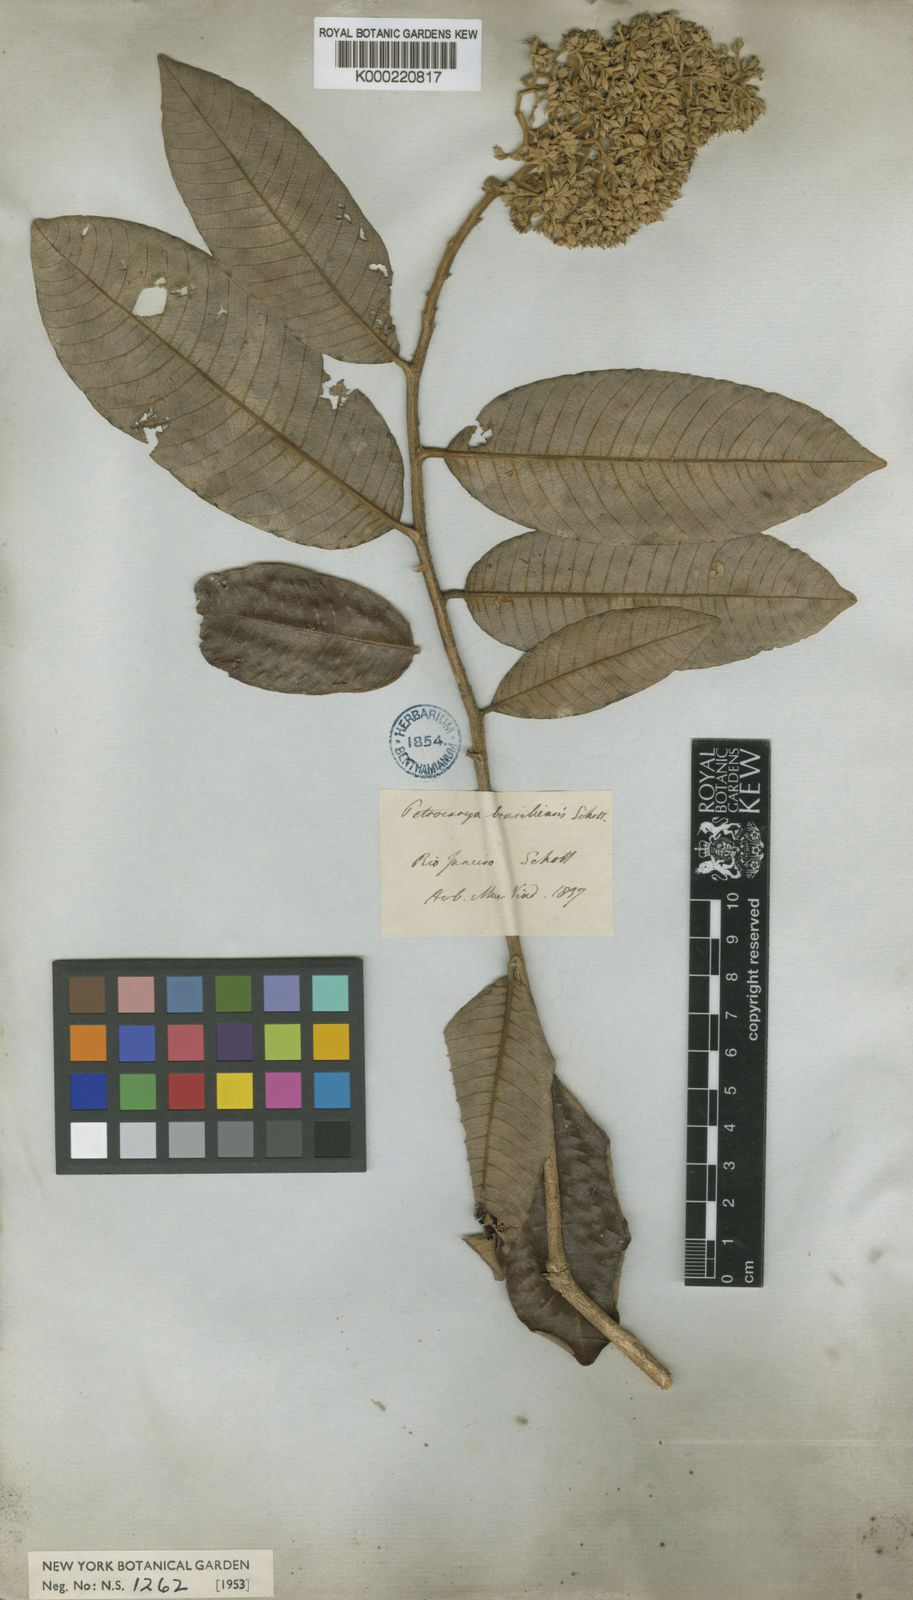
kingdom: Plantae
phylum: Tracheophyta
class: Magnoliopsida
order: Malpighiales
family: Chrysobalanaceae
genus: Parinari
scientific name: Parinari brasiliensis
